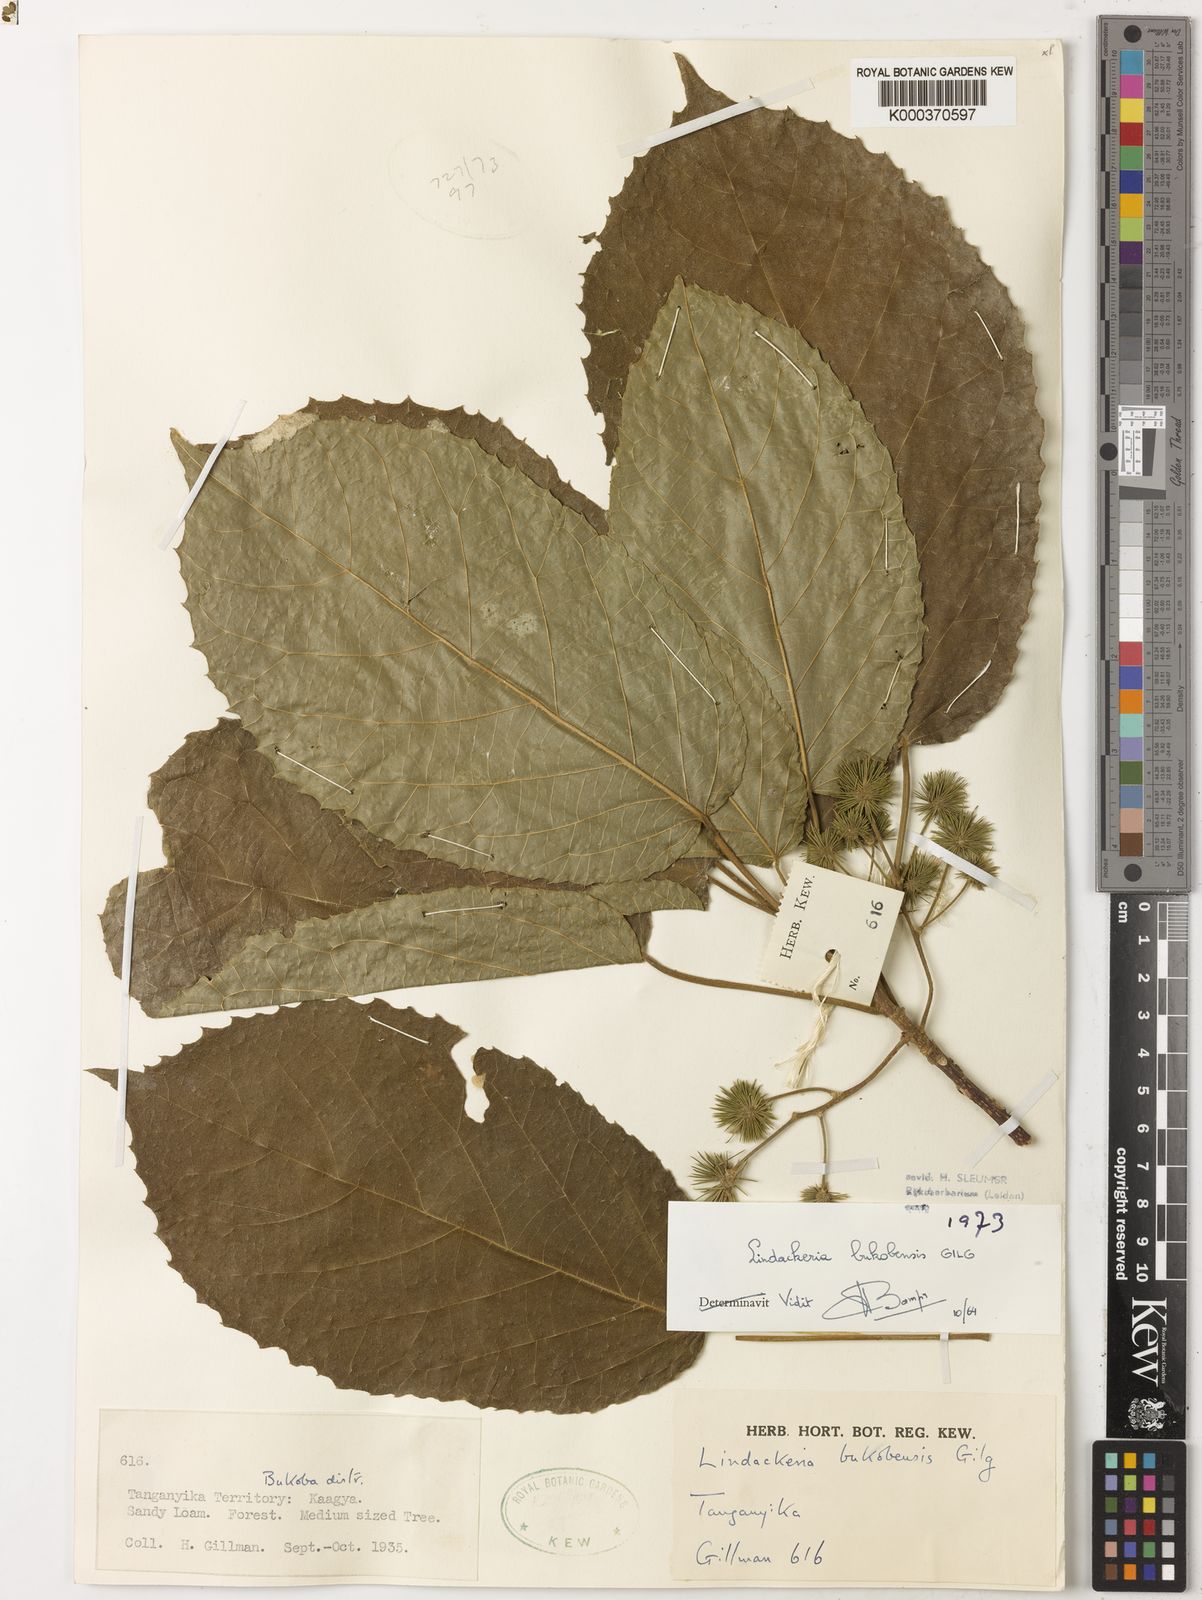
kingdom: Plantae
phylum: Tracheophyta
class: Magnoliopsida
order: Malpighiales
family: Achariaceae
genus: Lindackeria
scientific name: Lindackeria bukobensis
